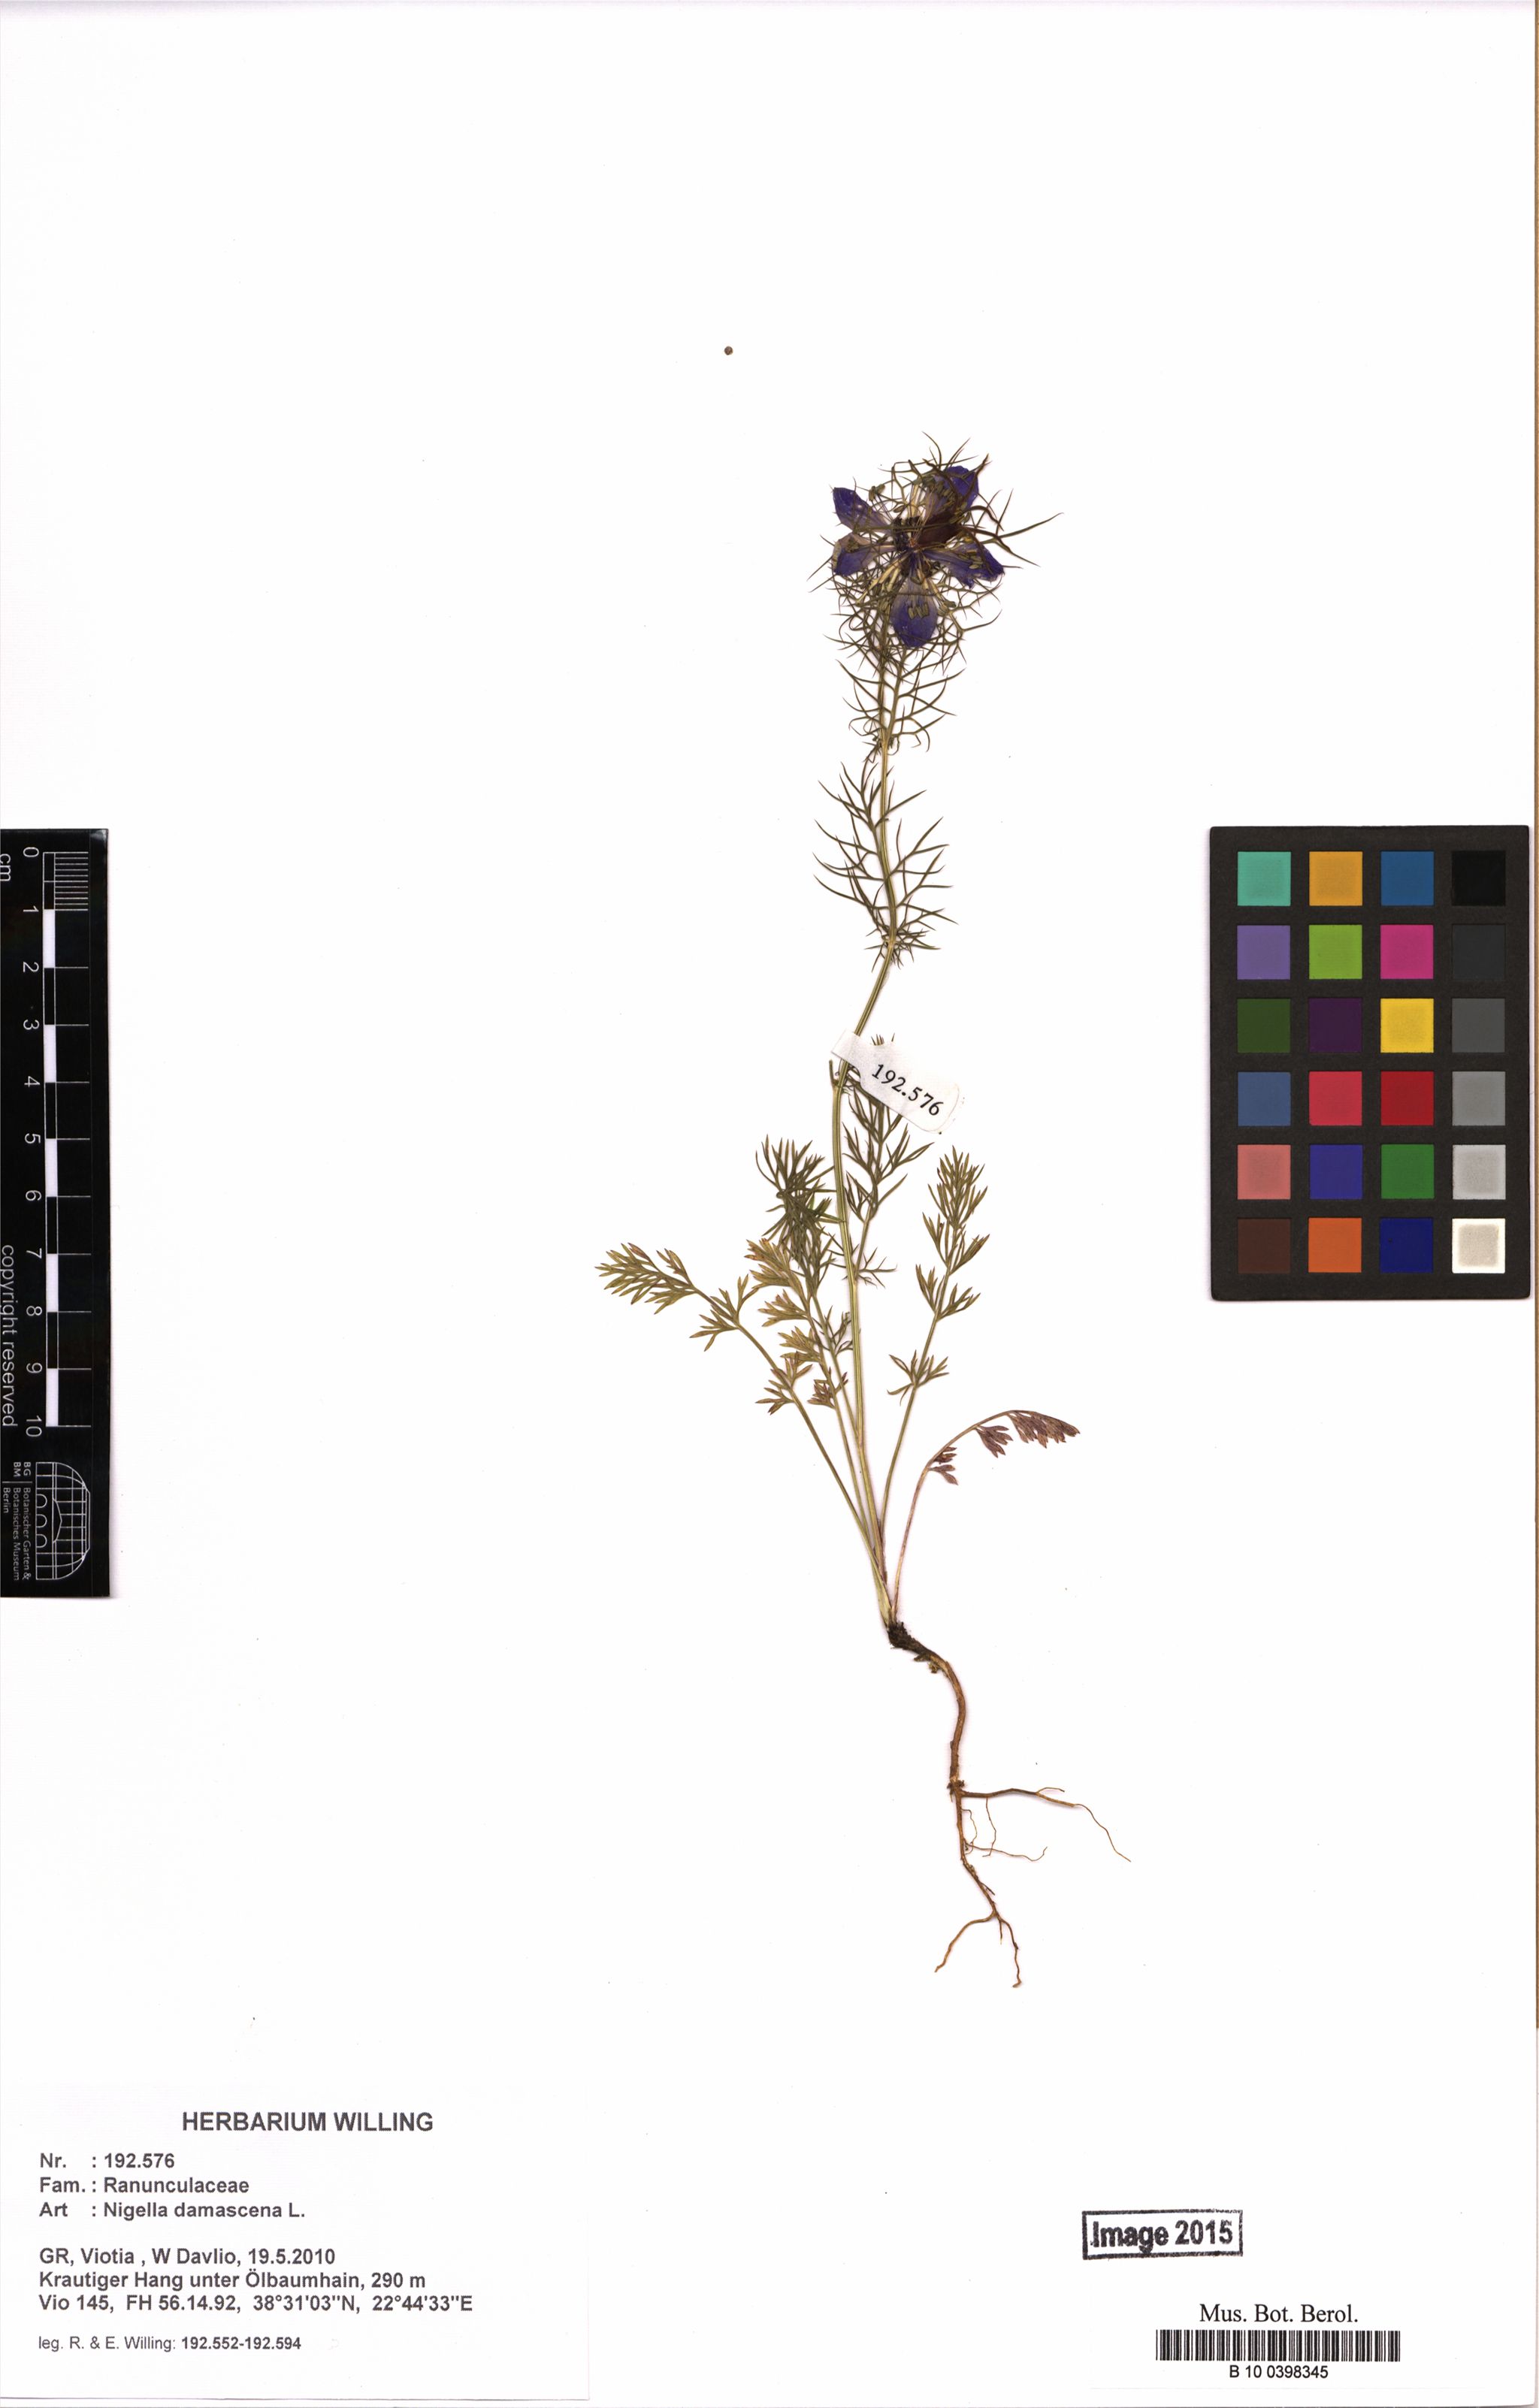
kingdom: Plantae
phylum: Tracheophyta
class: Magnoliopsida
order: Ranunculales
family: Ranunculaceae
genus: Nigella
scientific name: Nigella damascena
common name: Love-in-a-mist
